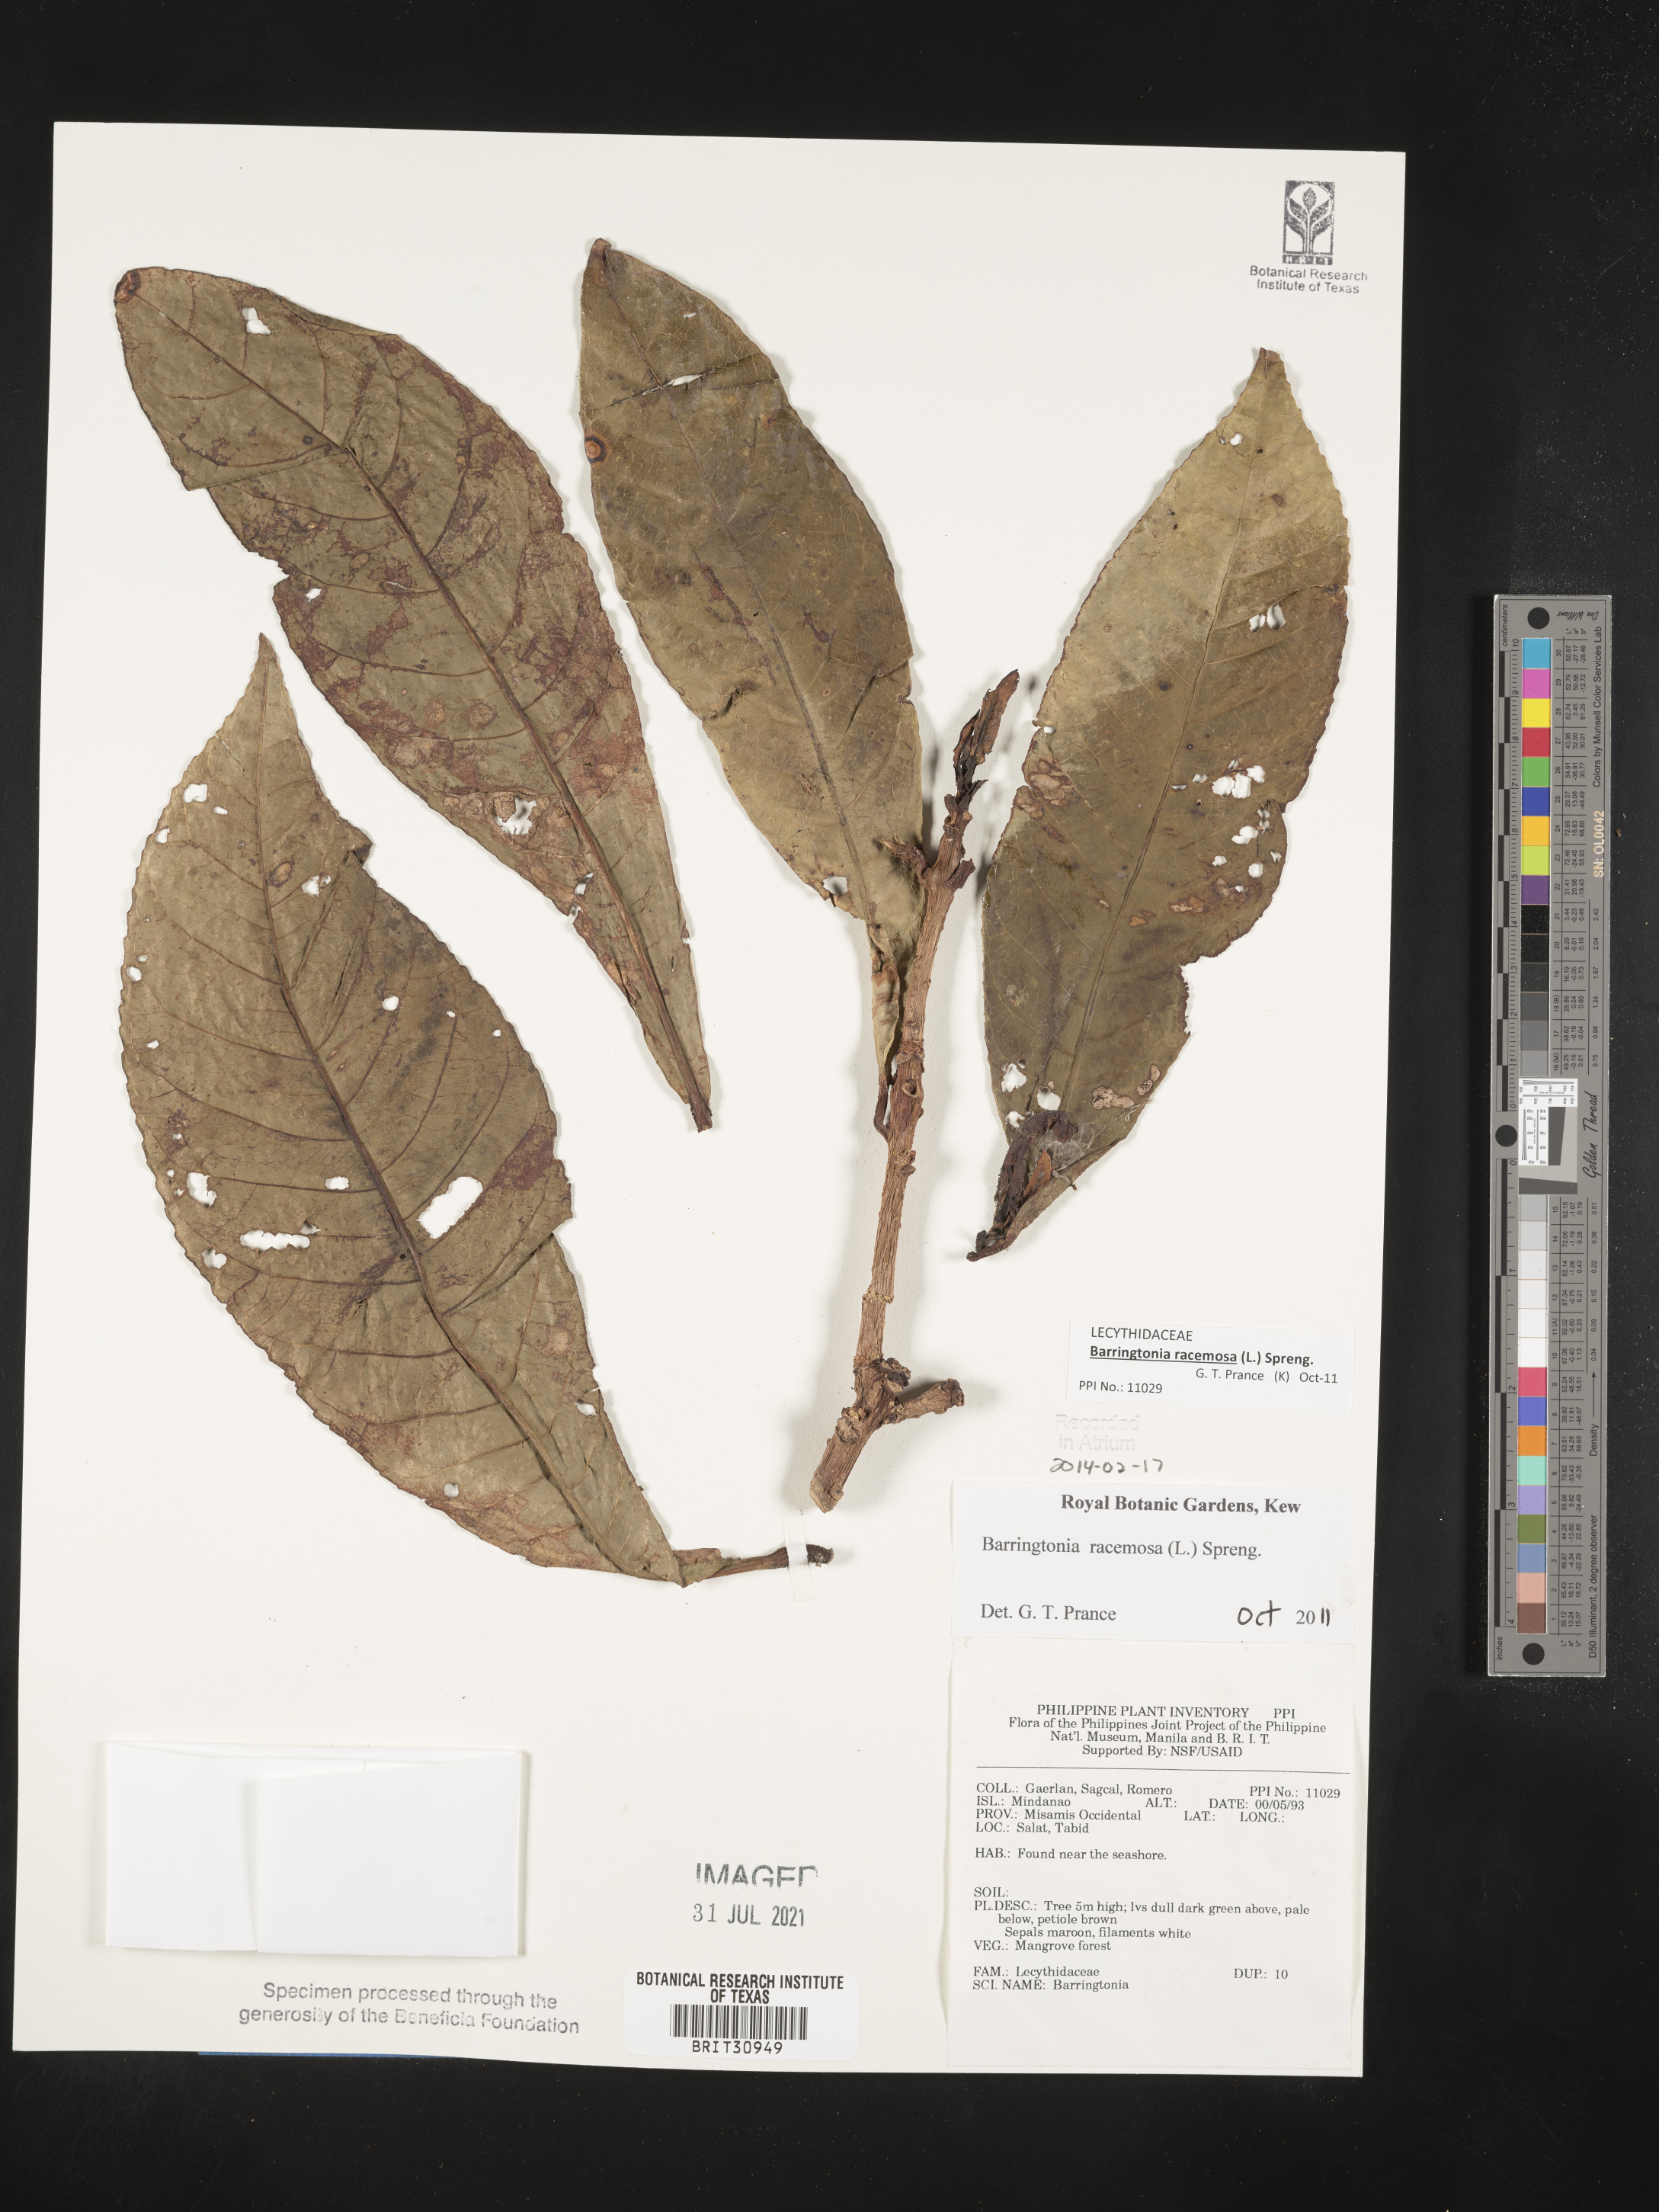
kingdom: Plantae
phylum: Tracheophyta
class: Magnoliopsida
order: Ericales
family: Lecythidaceae
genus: Barringtonia
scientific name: Barringtonia
